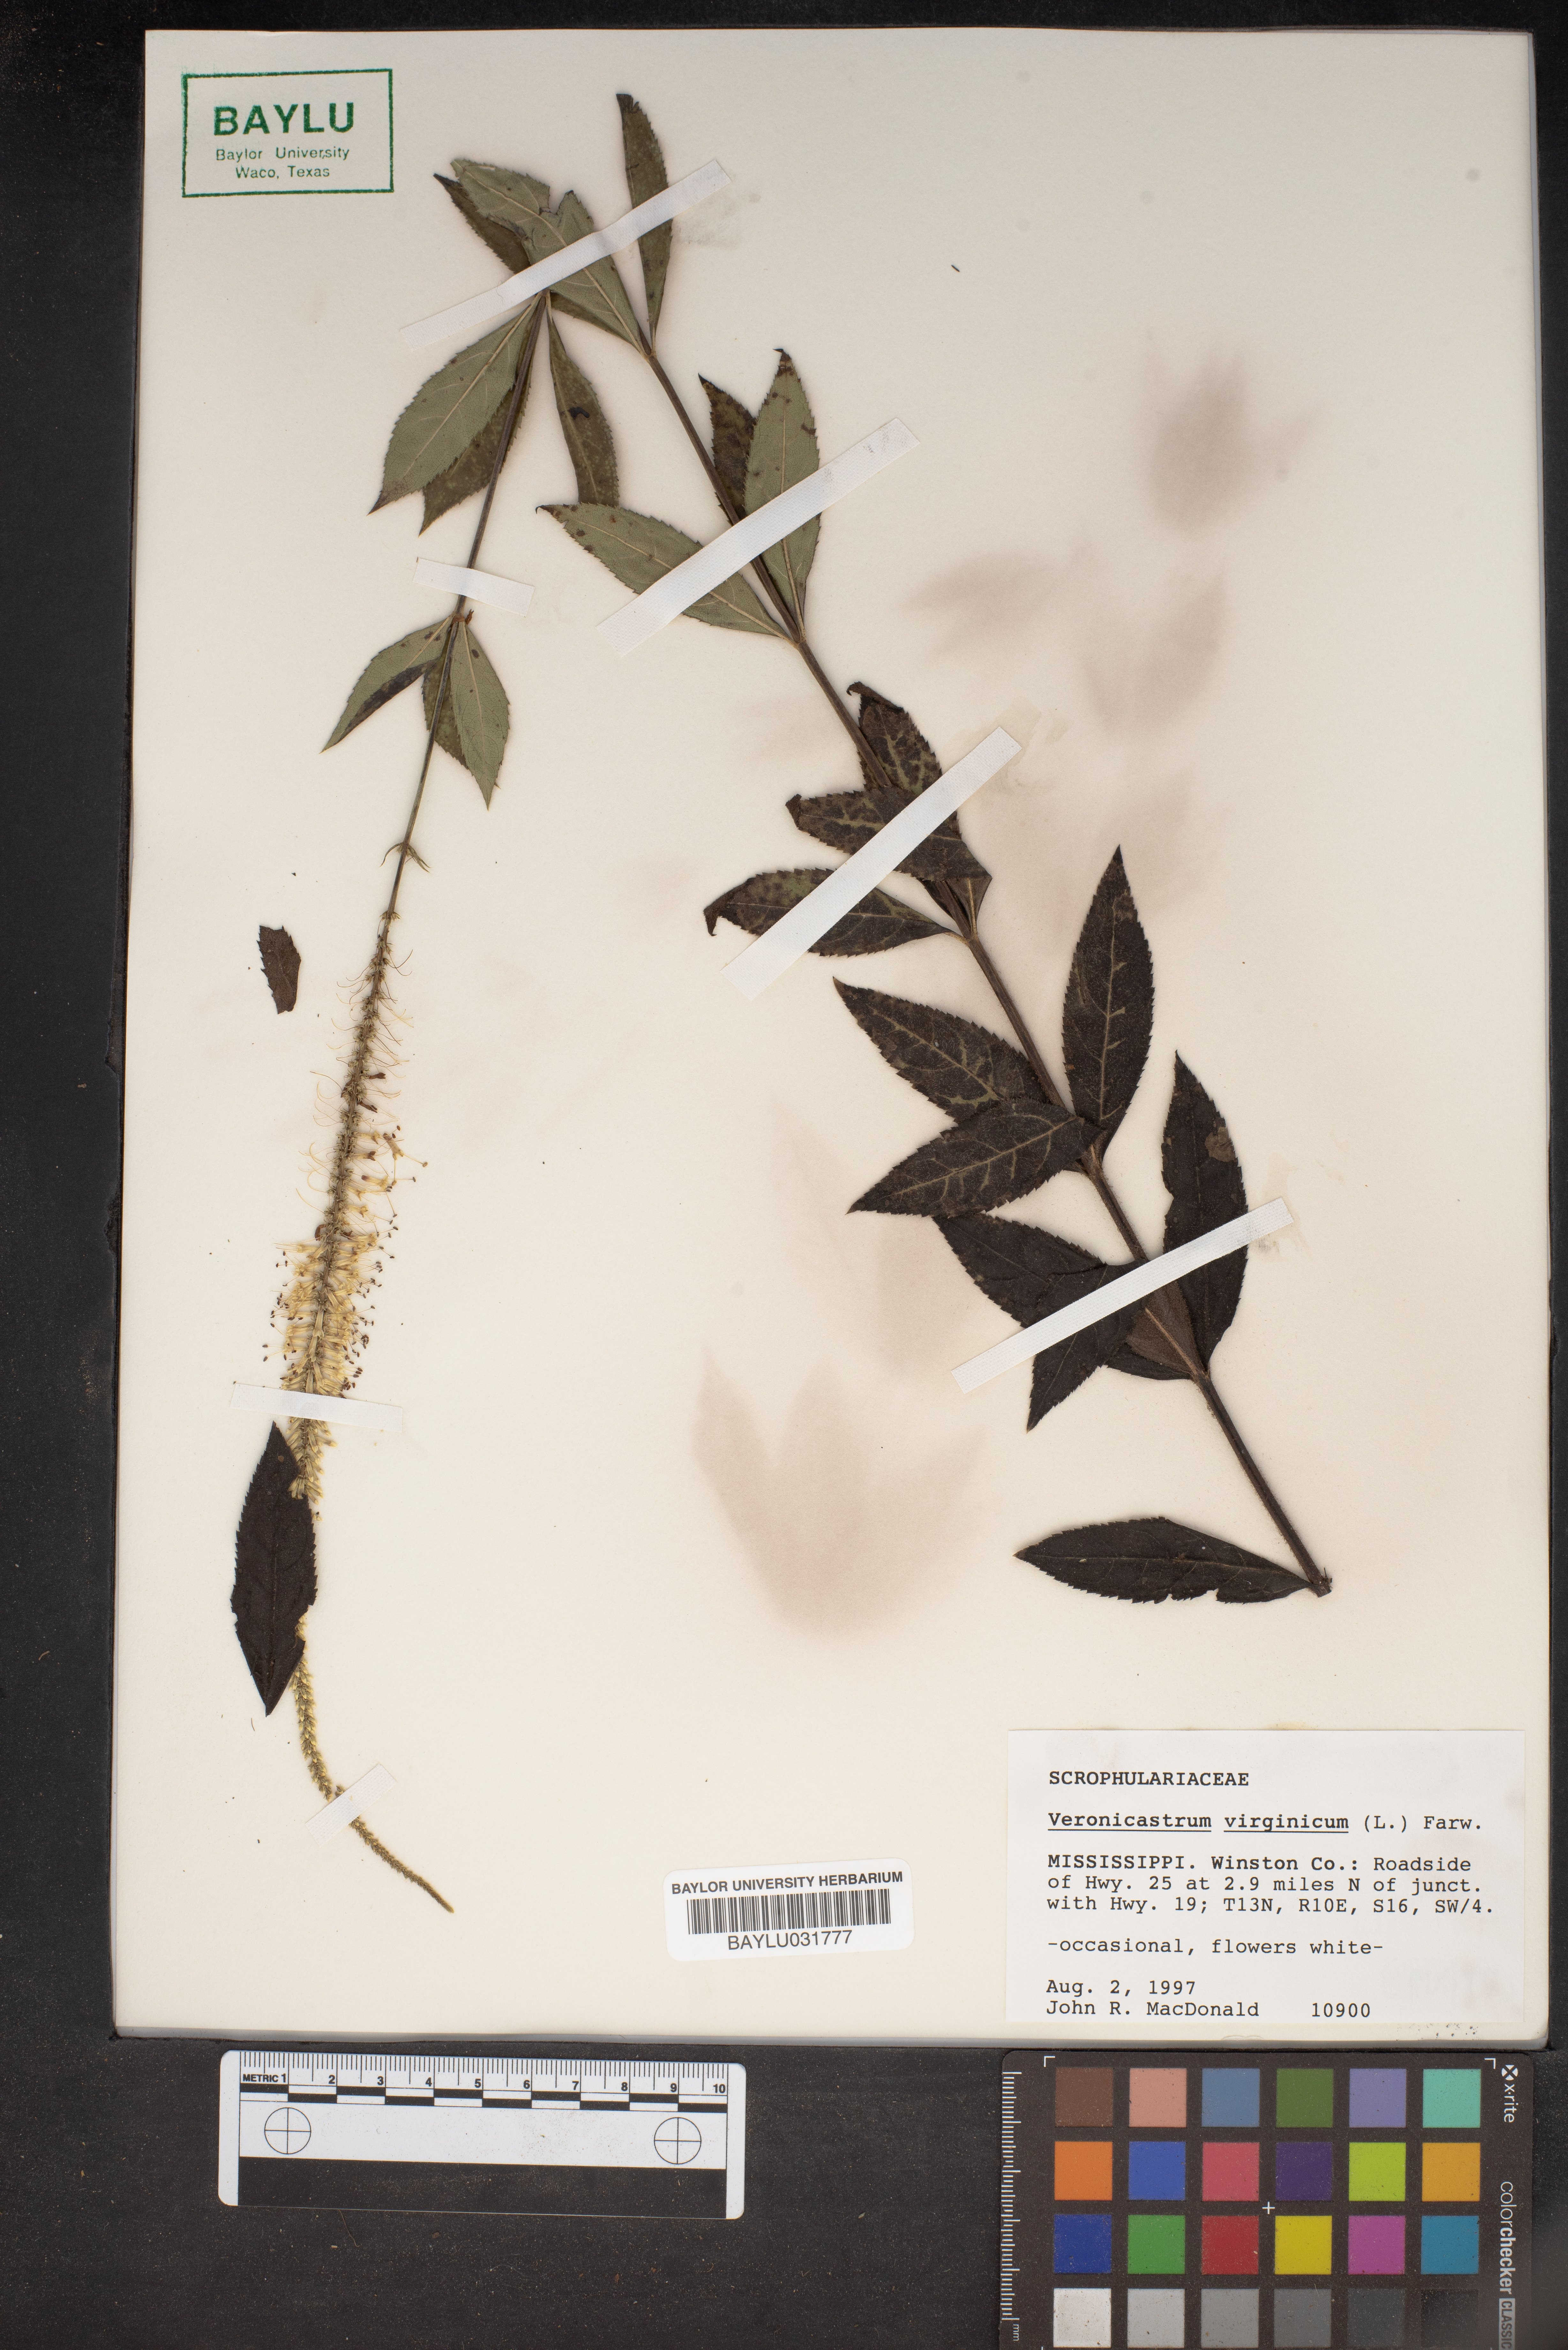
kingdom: Plantae
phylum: Tracheophyta
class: Magnoliopsida
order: Lamiales
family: Plantaginaceae
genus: Veronicastrum
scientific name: Veronicastrum virginicum
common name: Blackroot
